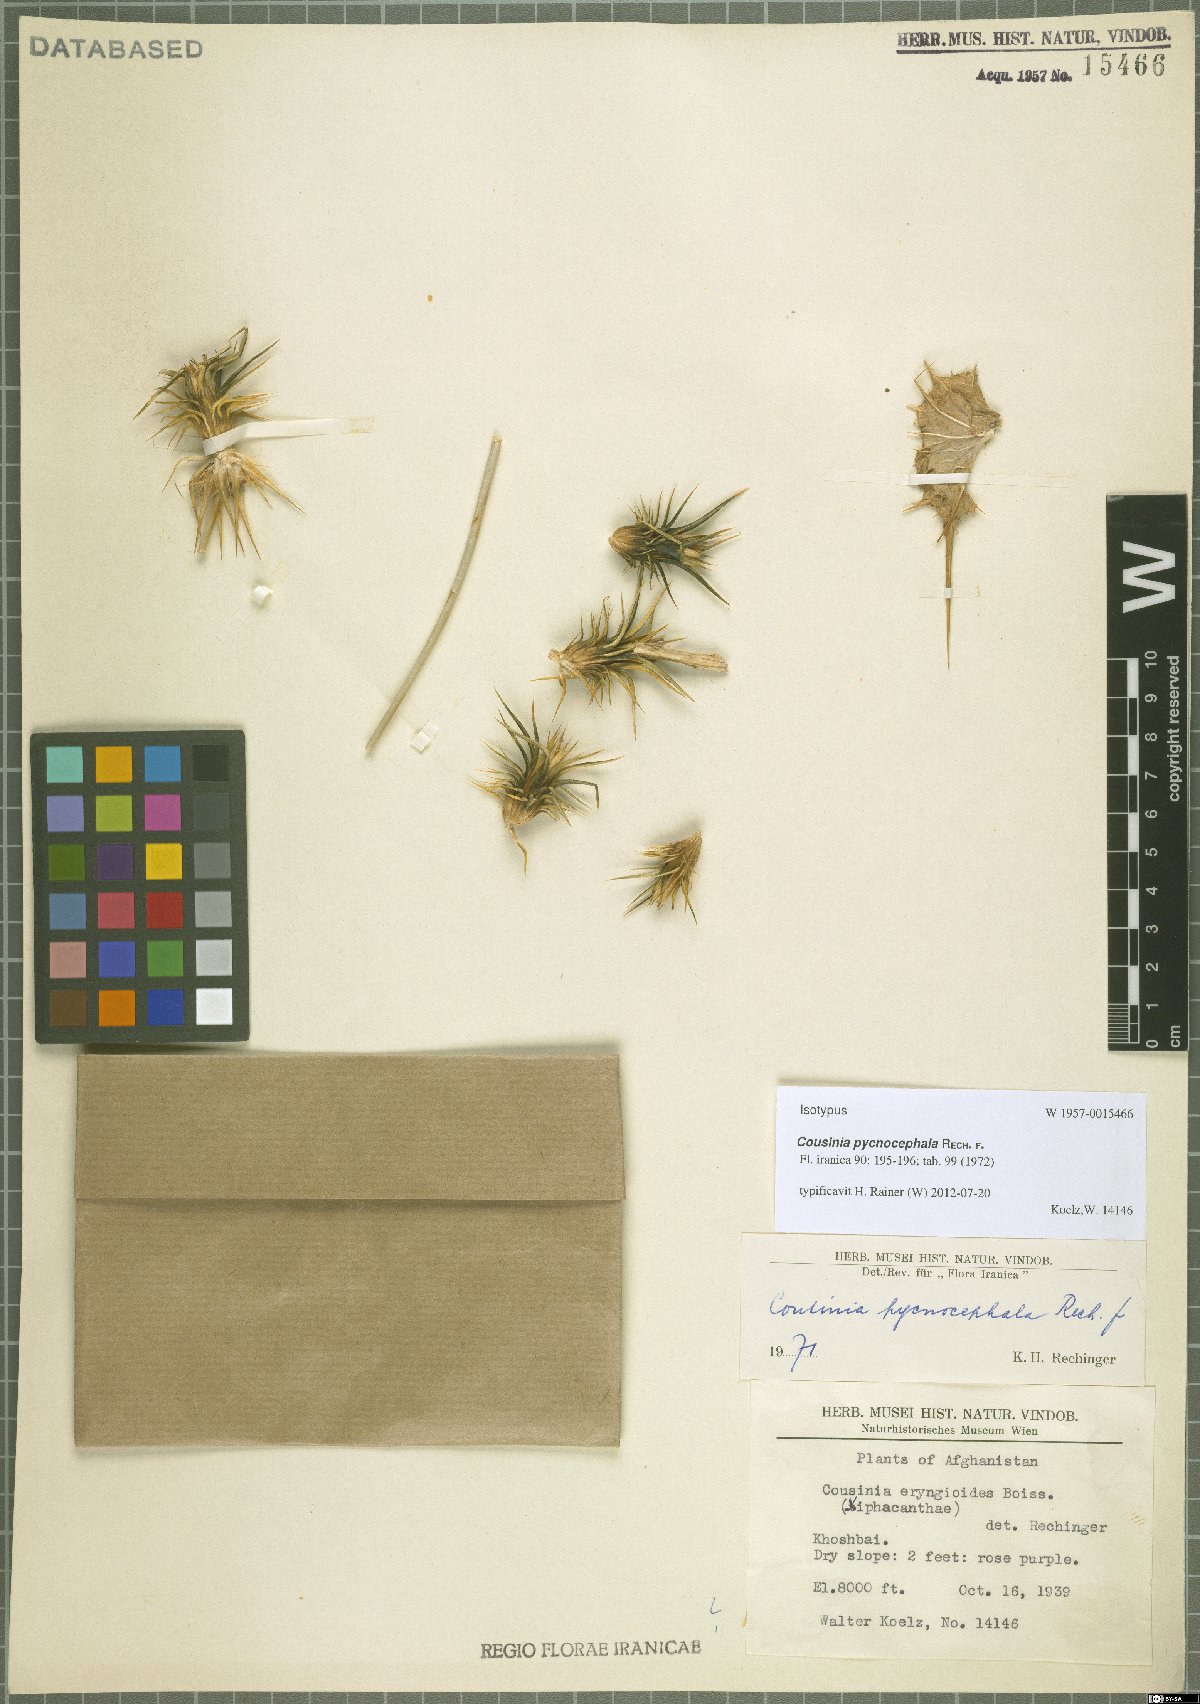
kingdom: Plantae
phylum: Tracheophyta
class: Magnoliopsida
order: Asterales
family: Asteraceae
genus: Cousinia
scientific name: Cousinia pycnocephala
